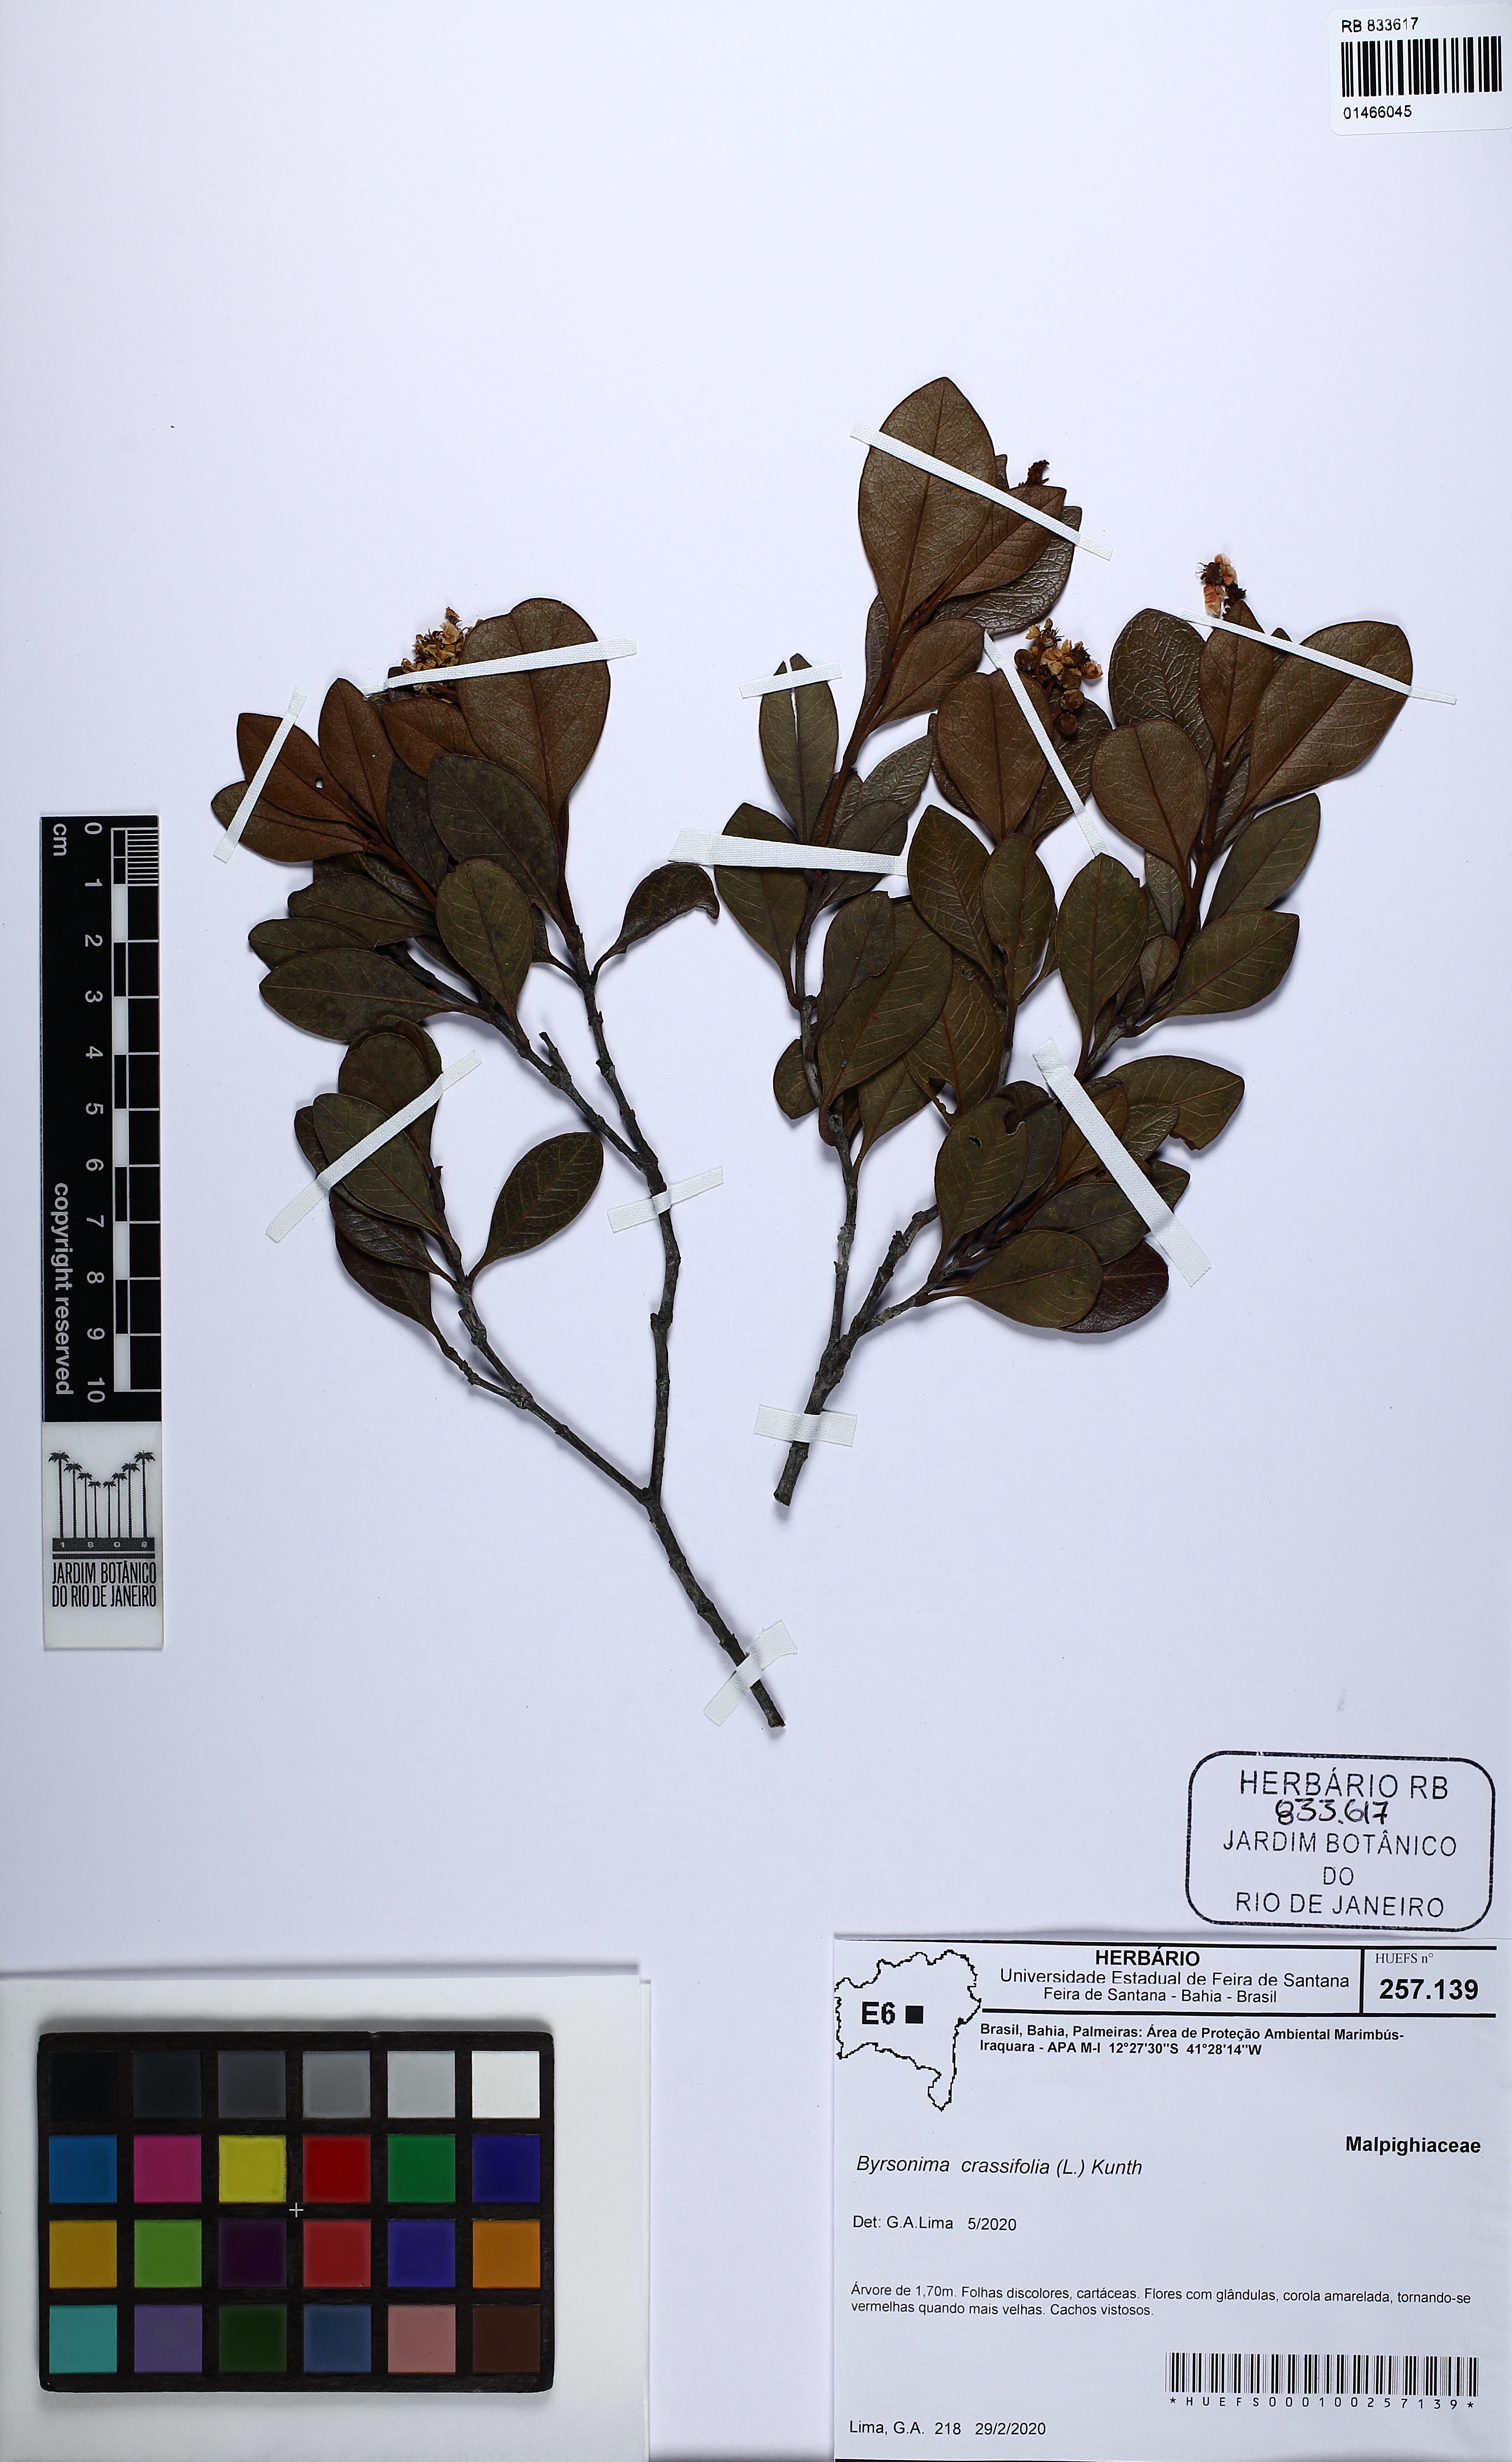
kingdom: Plantae
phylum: Tracheophyta
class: Magnoliopsida
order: Malpighiales
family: Malpighiaceae
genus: Byrsonima
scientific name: Byrsonima crassifolia
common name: Golden spoon
